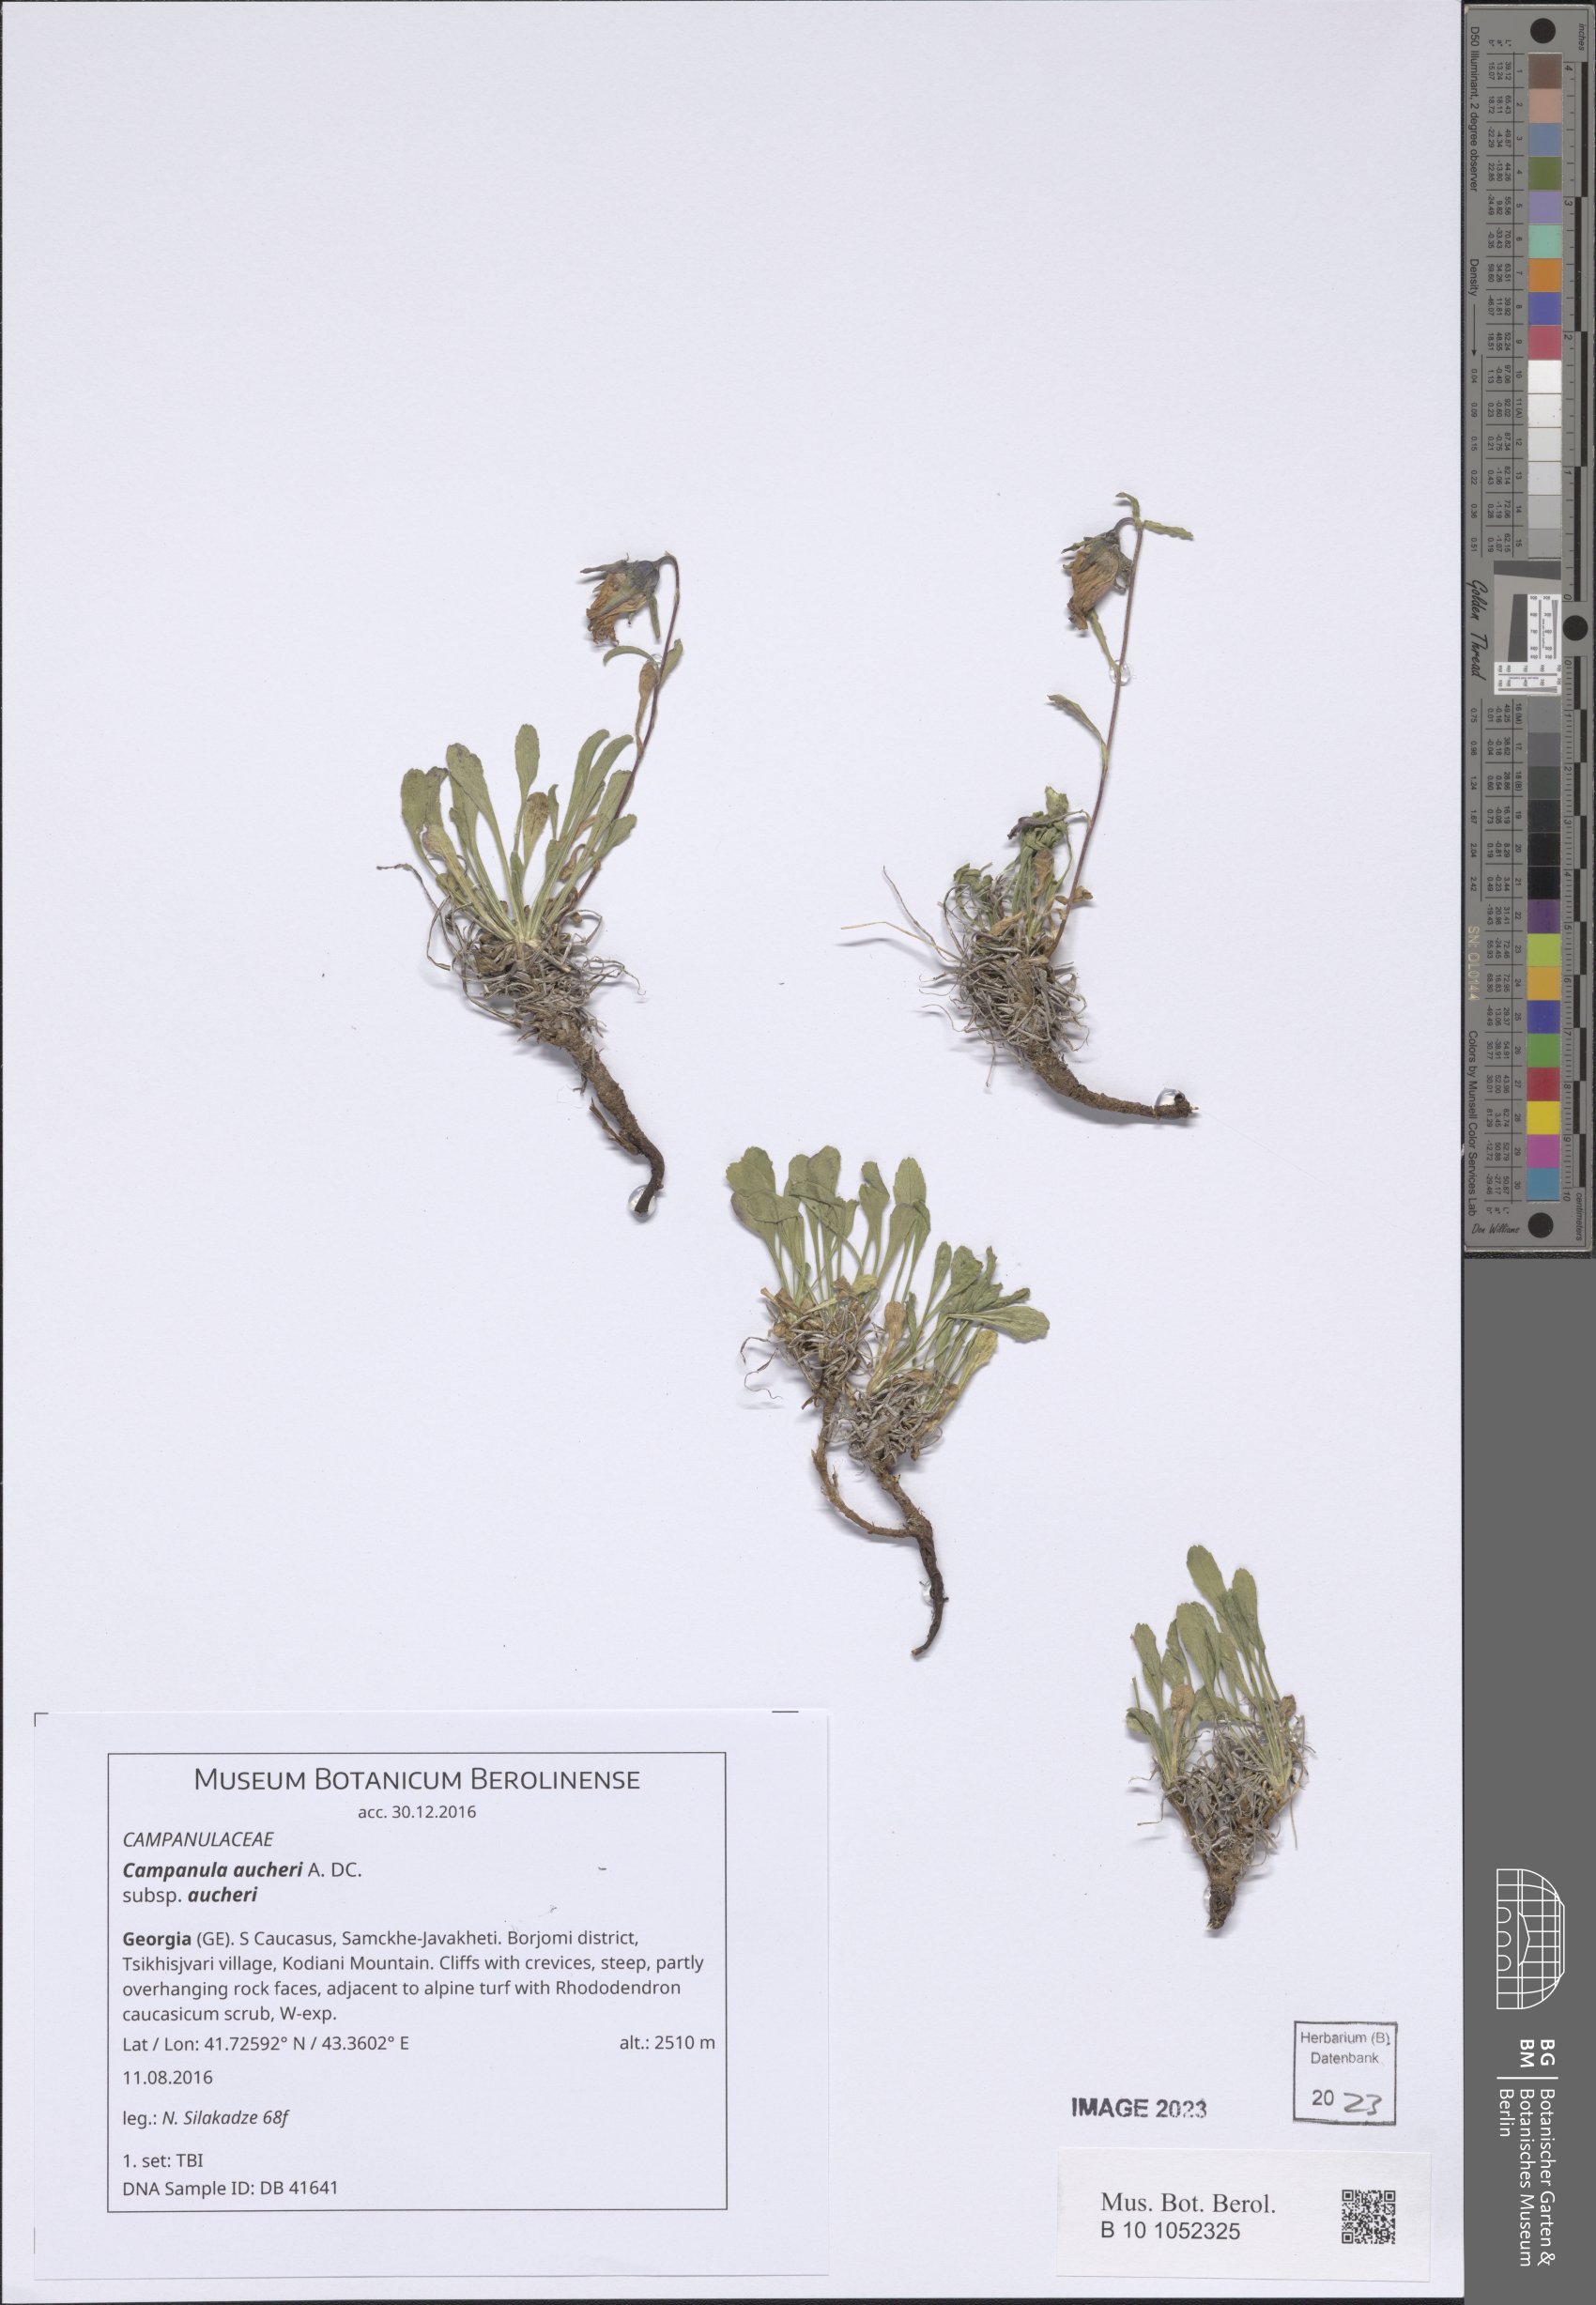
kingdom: Plantae
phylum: Tracheophyta
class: Magnoliopsida
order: Asterales
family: Campanulaceae
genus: Campanula
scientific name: Campanula saxifraga
